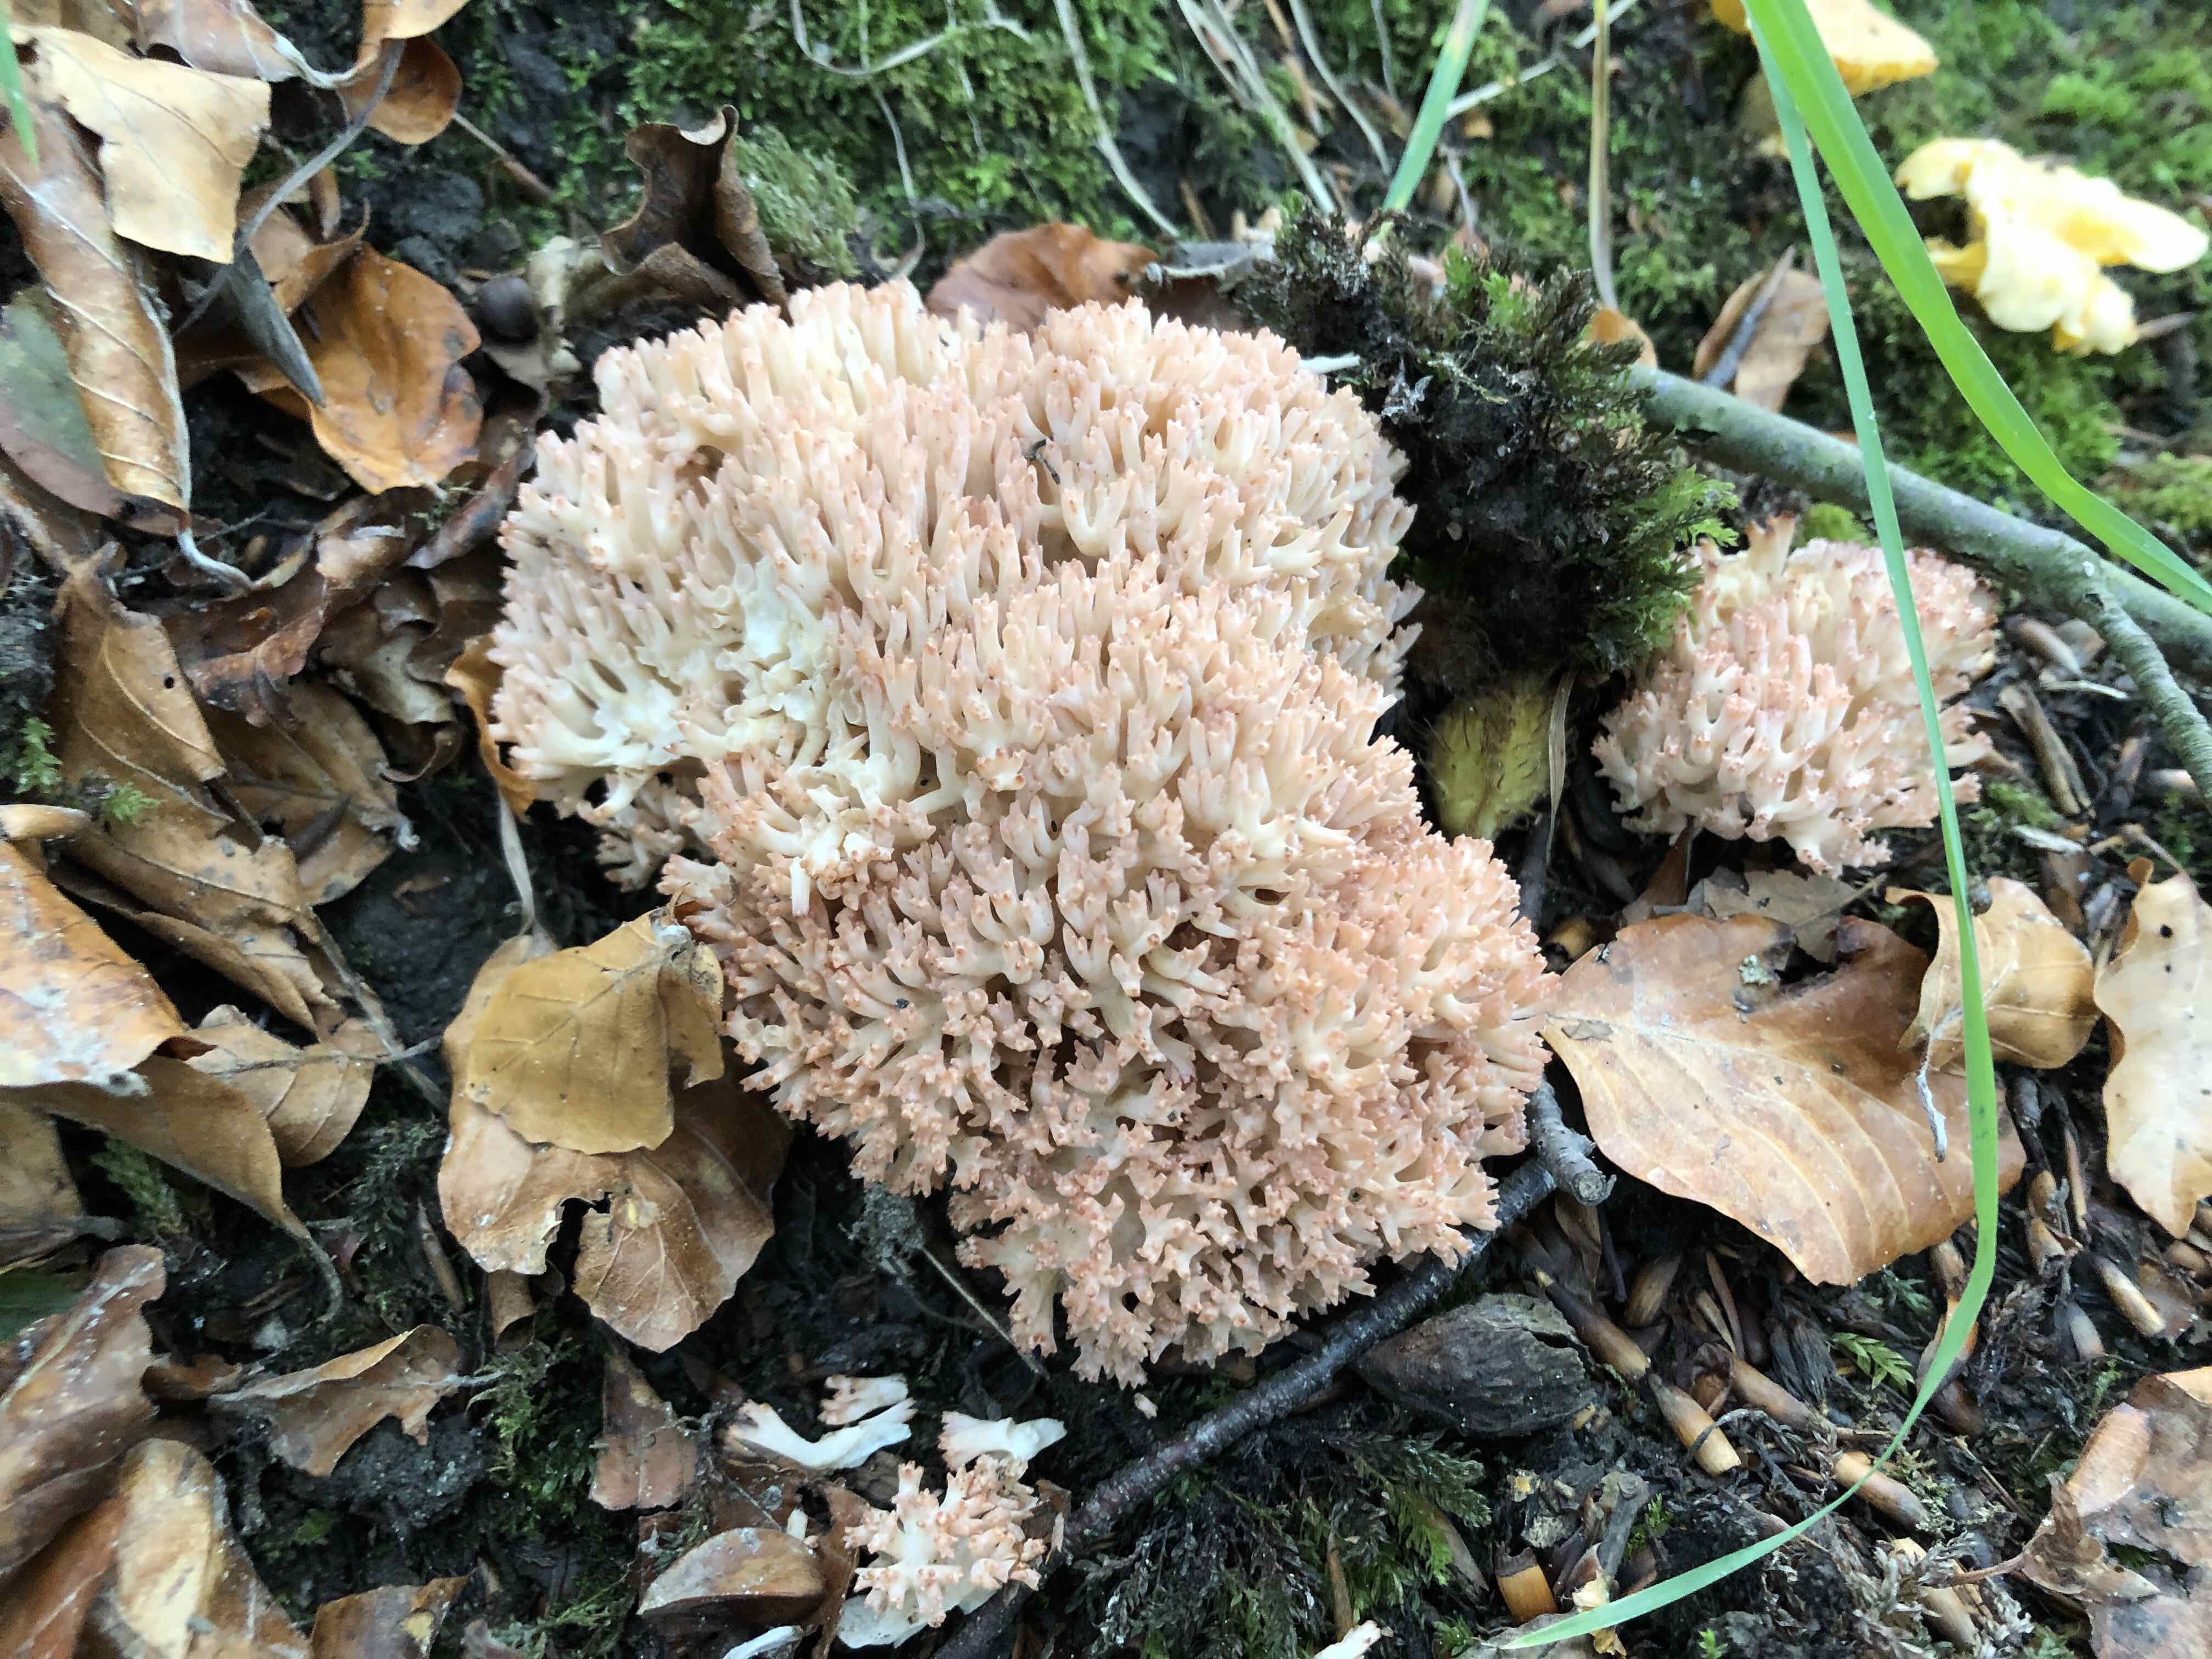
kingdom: Fungi
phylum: Basidiomycota
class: Agaricomycetes
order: Gomphales
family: Gomphaceae
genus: Ramaria
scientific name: Ramaria botrytis
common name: drue-koralsvamp
